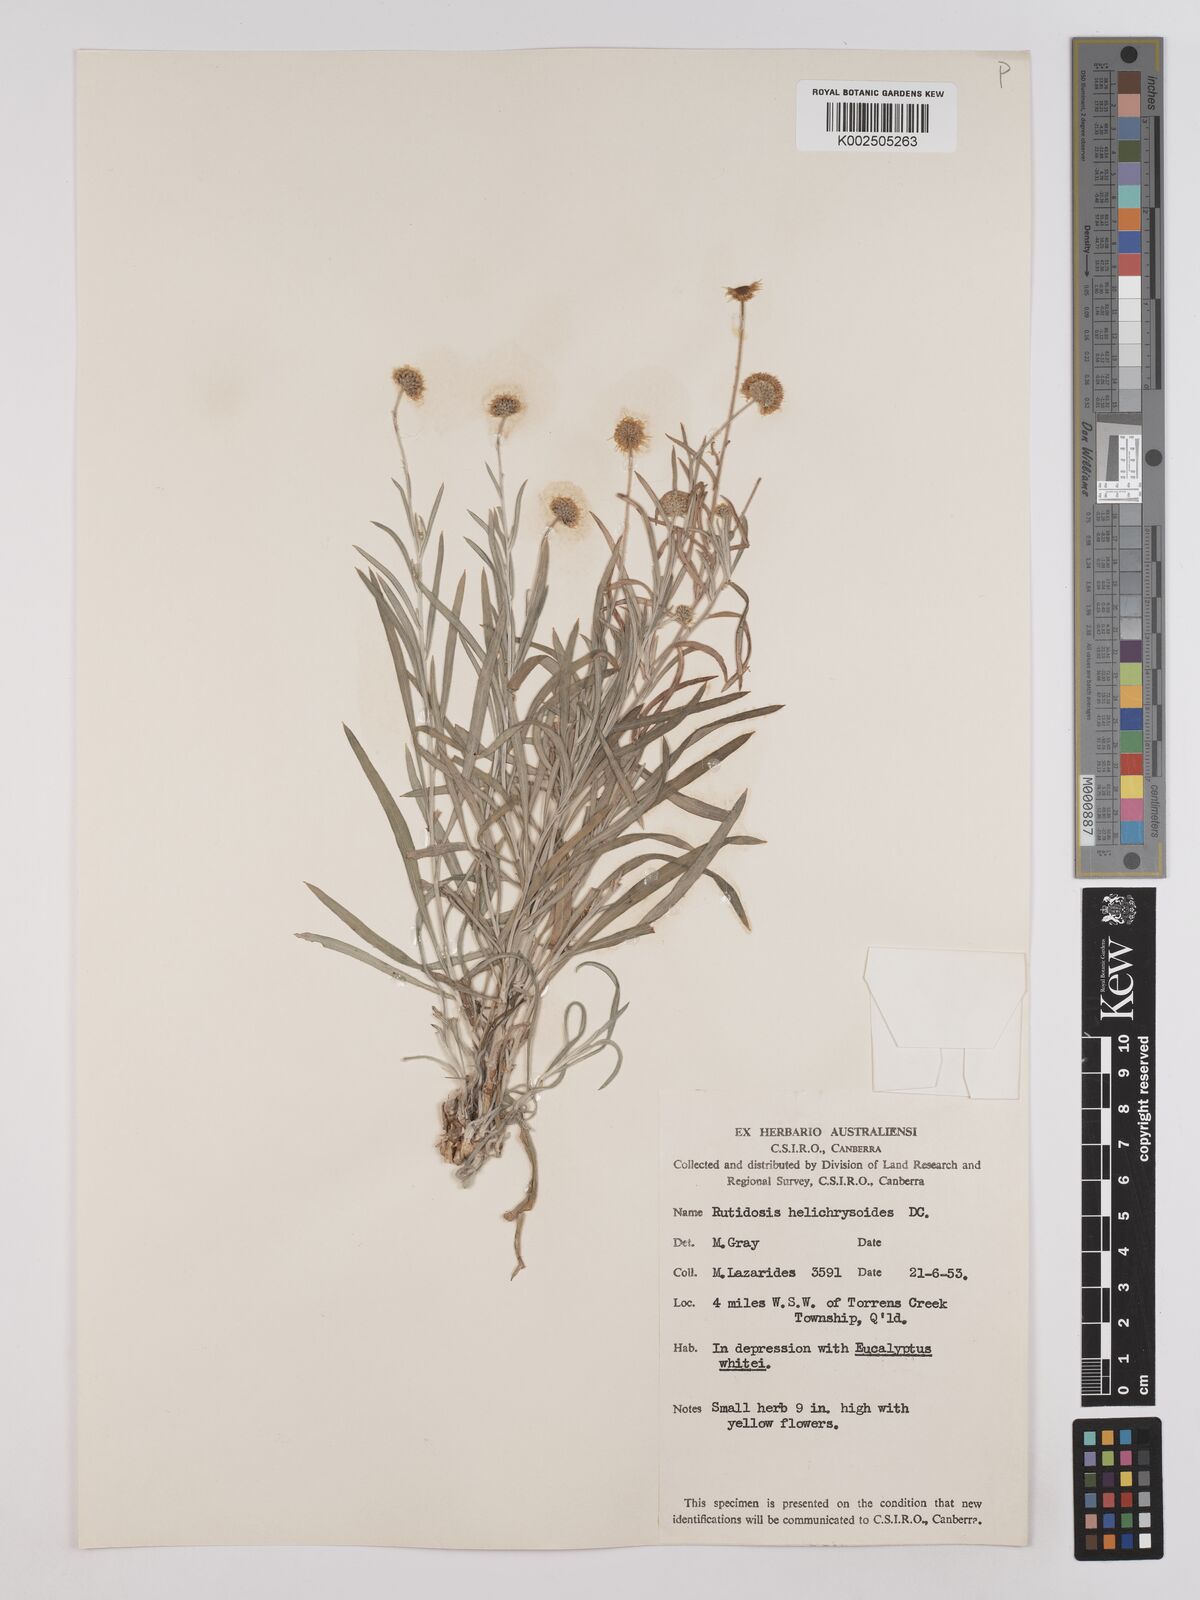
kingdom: Plantae
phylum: Tracheophyta
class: Magnoliopsida
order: Asterales
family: Asteraceae
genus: Rutidosis
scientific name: Rutidosis helichrysoides
